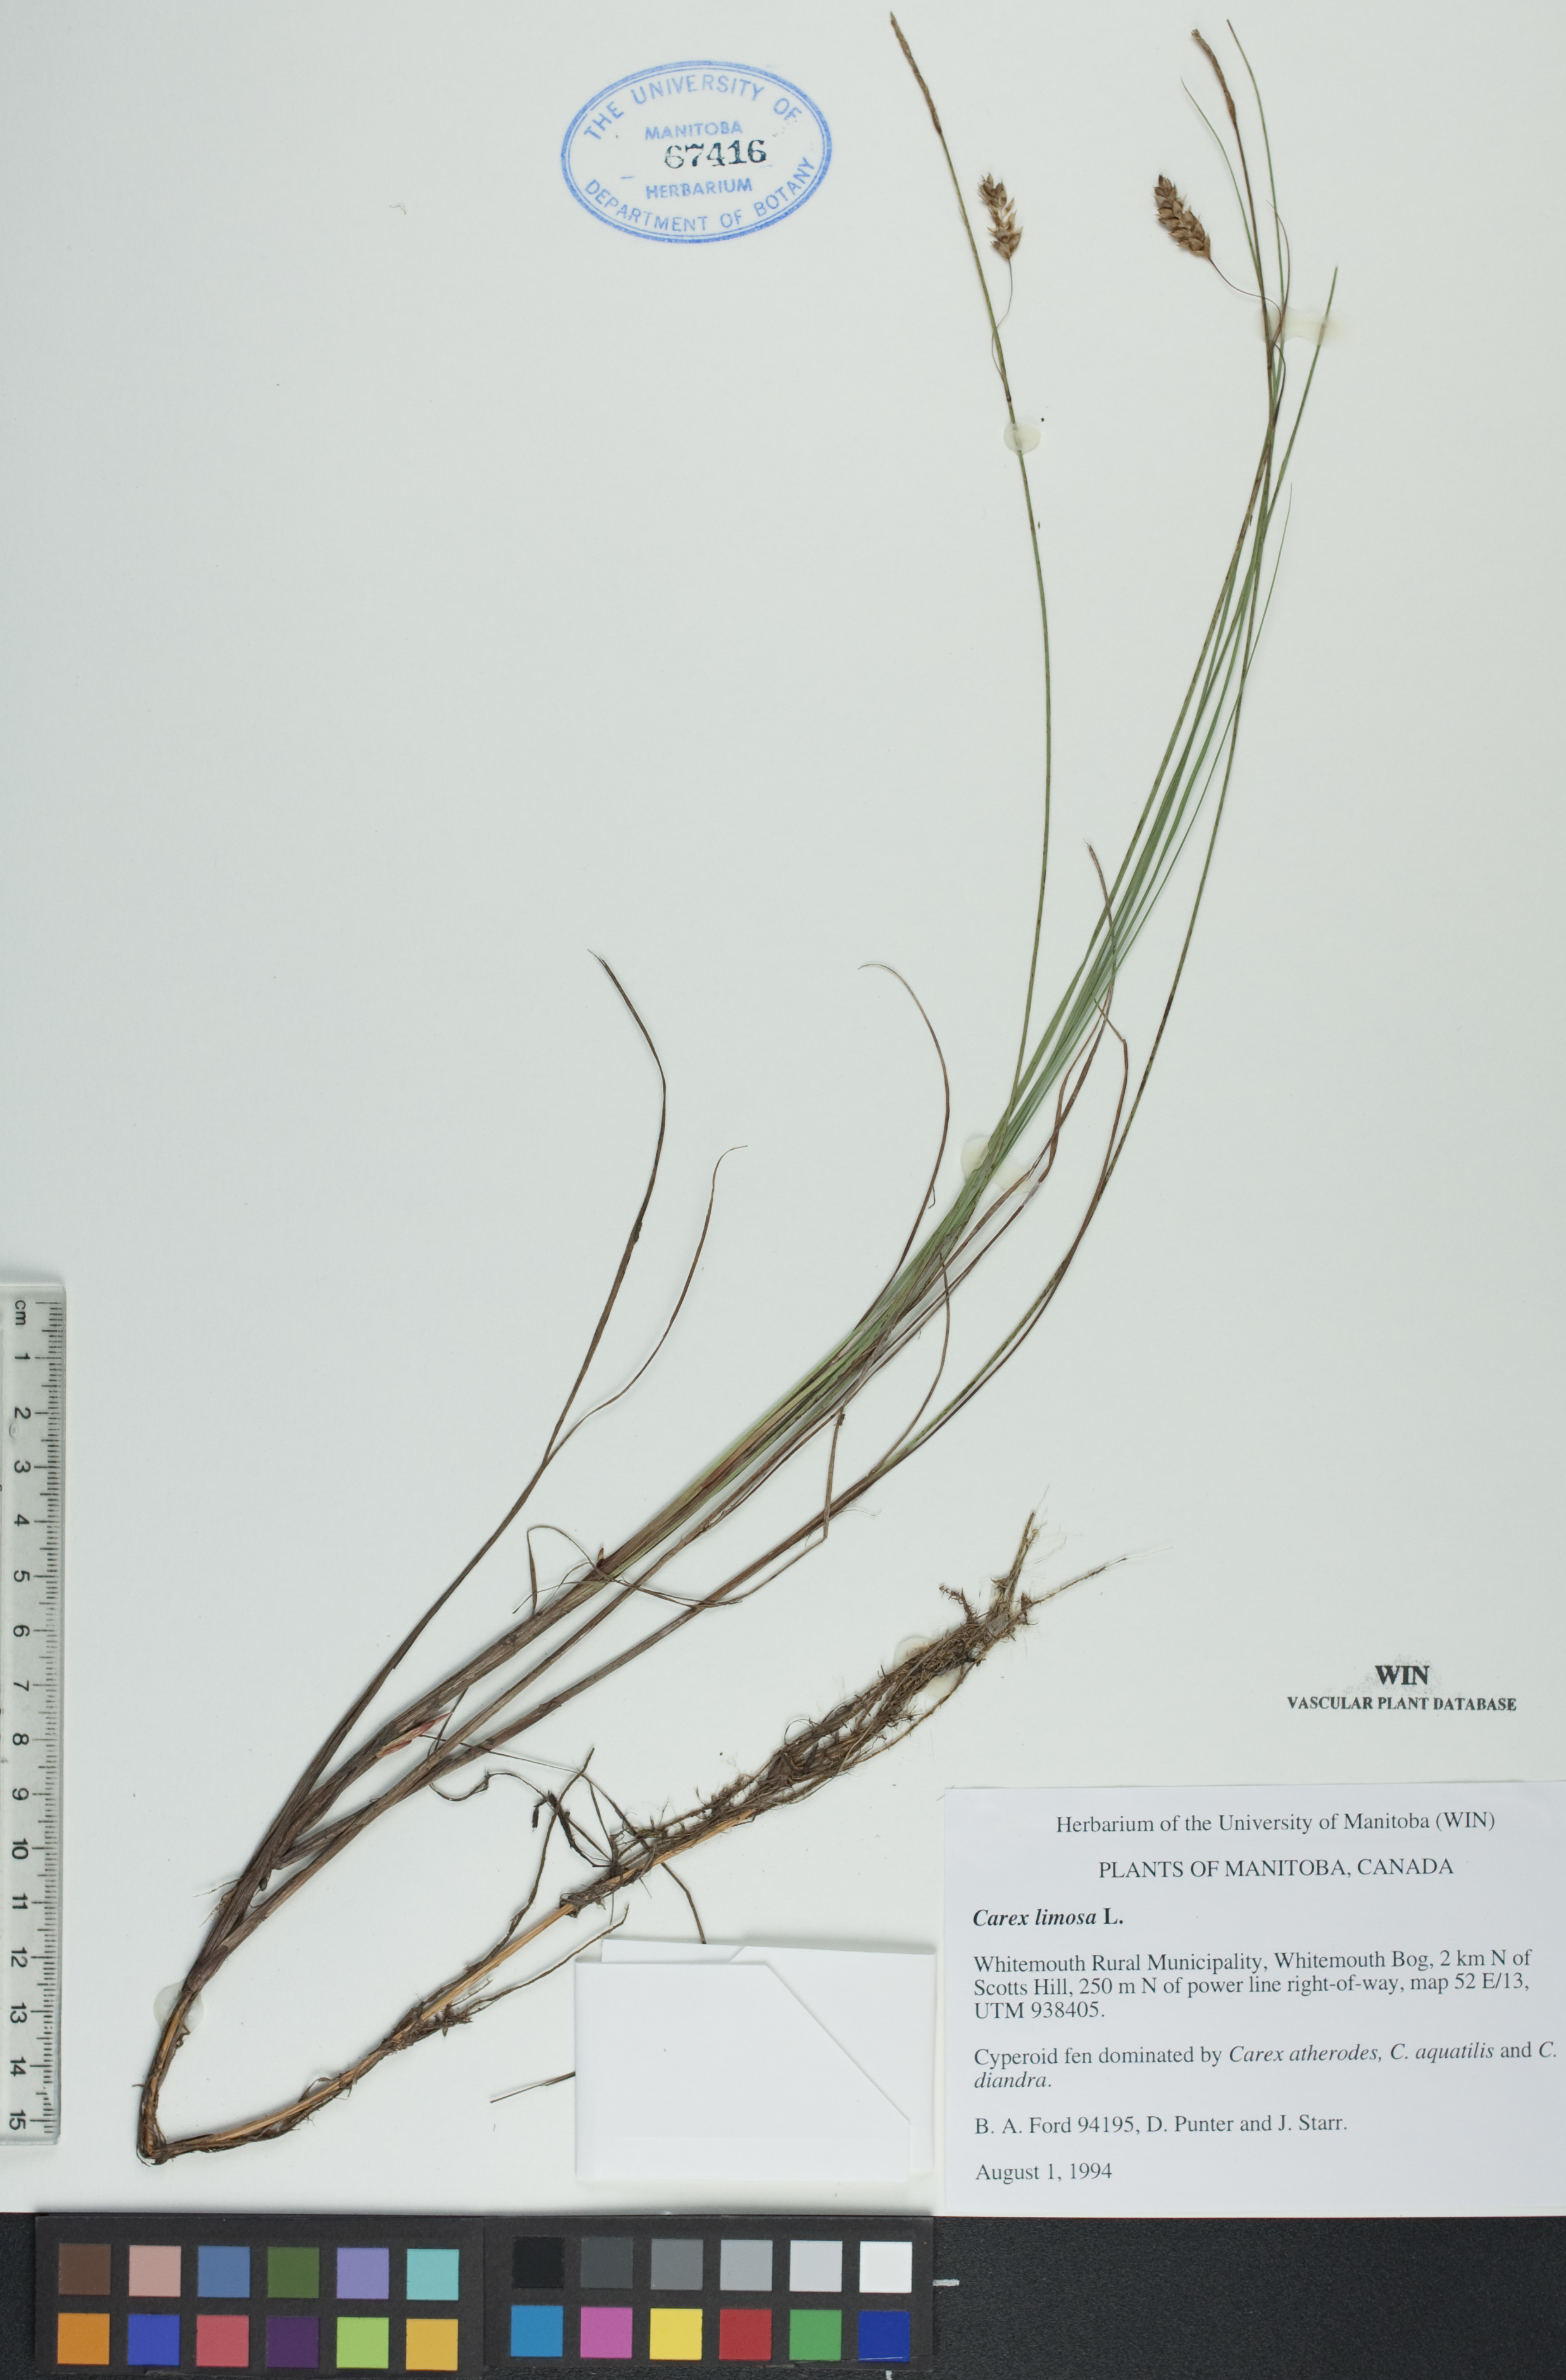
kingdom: Plantae
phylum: Tracheophyta
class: Liliopsida
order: Poales
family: Cyperaceae
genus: Carex
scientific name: Carex limosa
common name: Bog sedge
